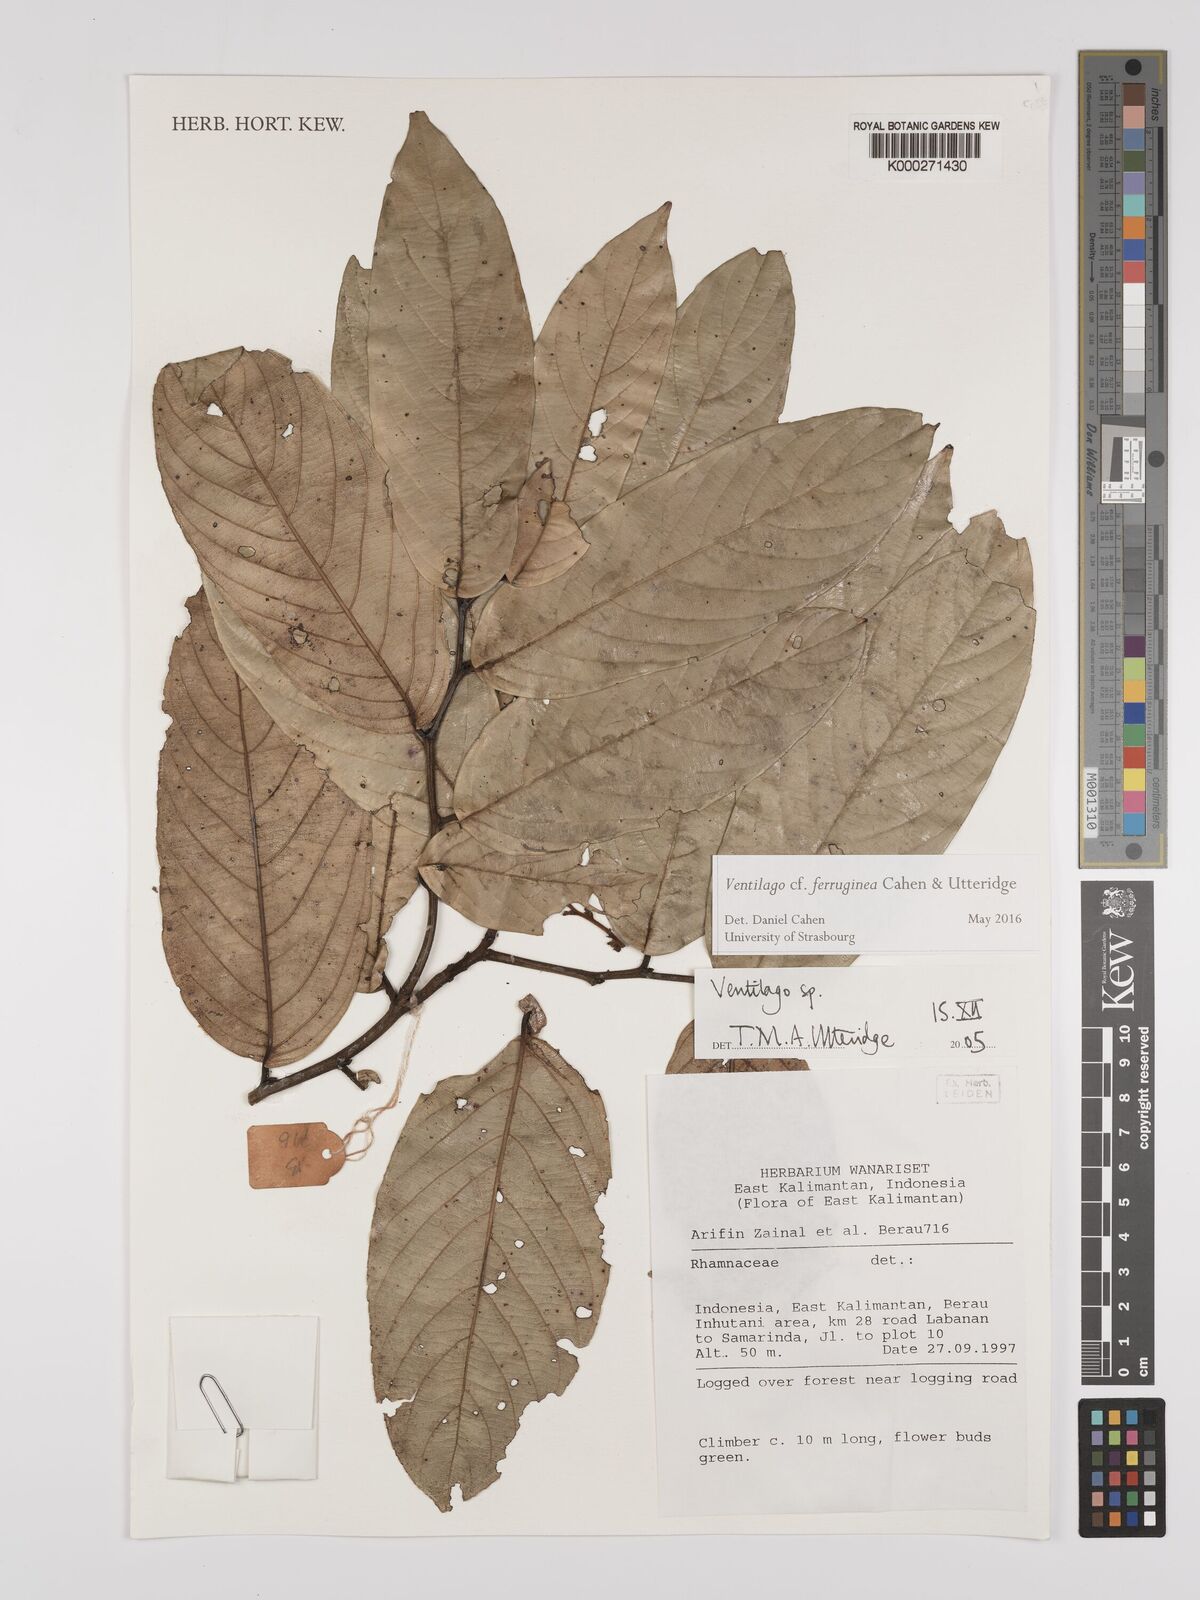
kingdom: Plantae
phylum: Tracheophyta
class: Magnoliopsida
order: Rosales
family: Rhamnaceae
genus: Ventilago
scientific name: Ventilago
